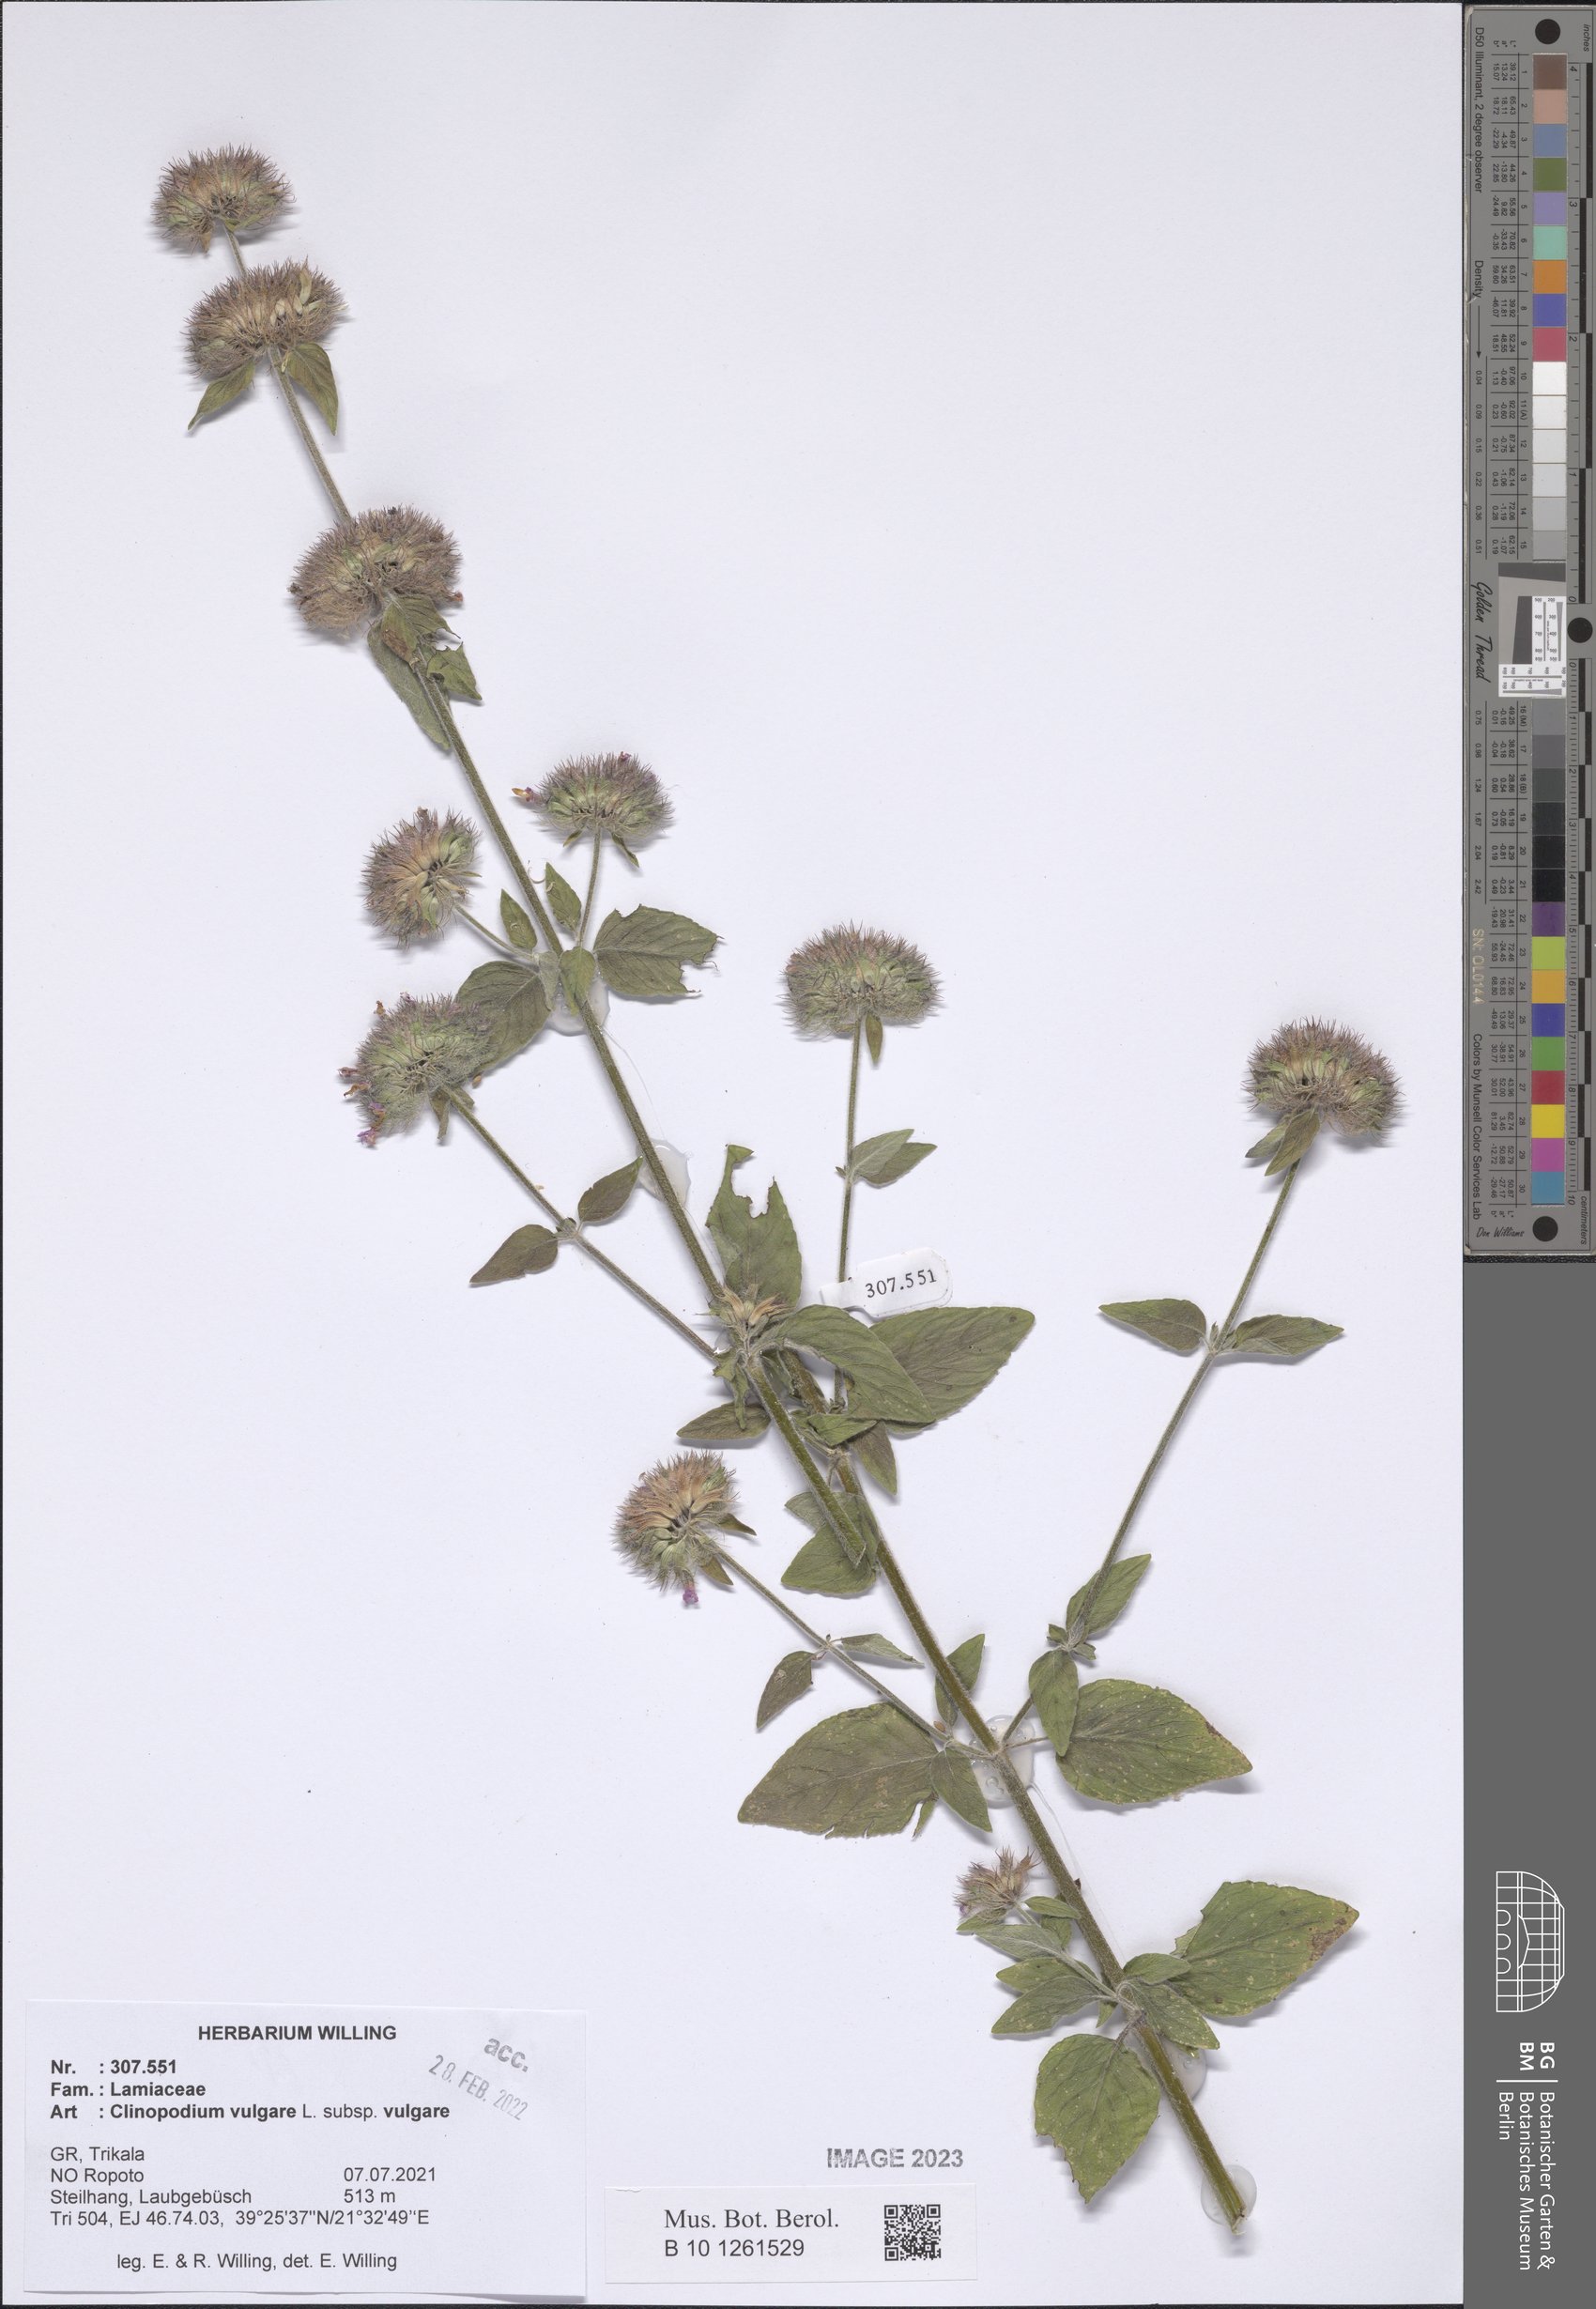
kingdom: Plantae
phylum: Tracheophyta
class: Magnoliopsida
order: Lamiales
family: Lamiaceae
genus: Clinopodium
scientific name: Clinopodium vulgare
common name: Wild basil
